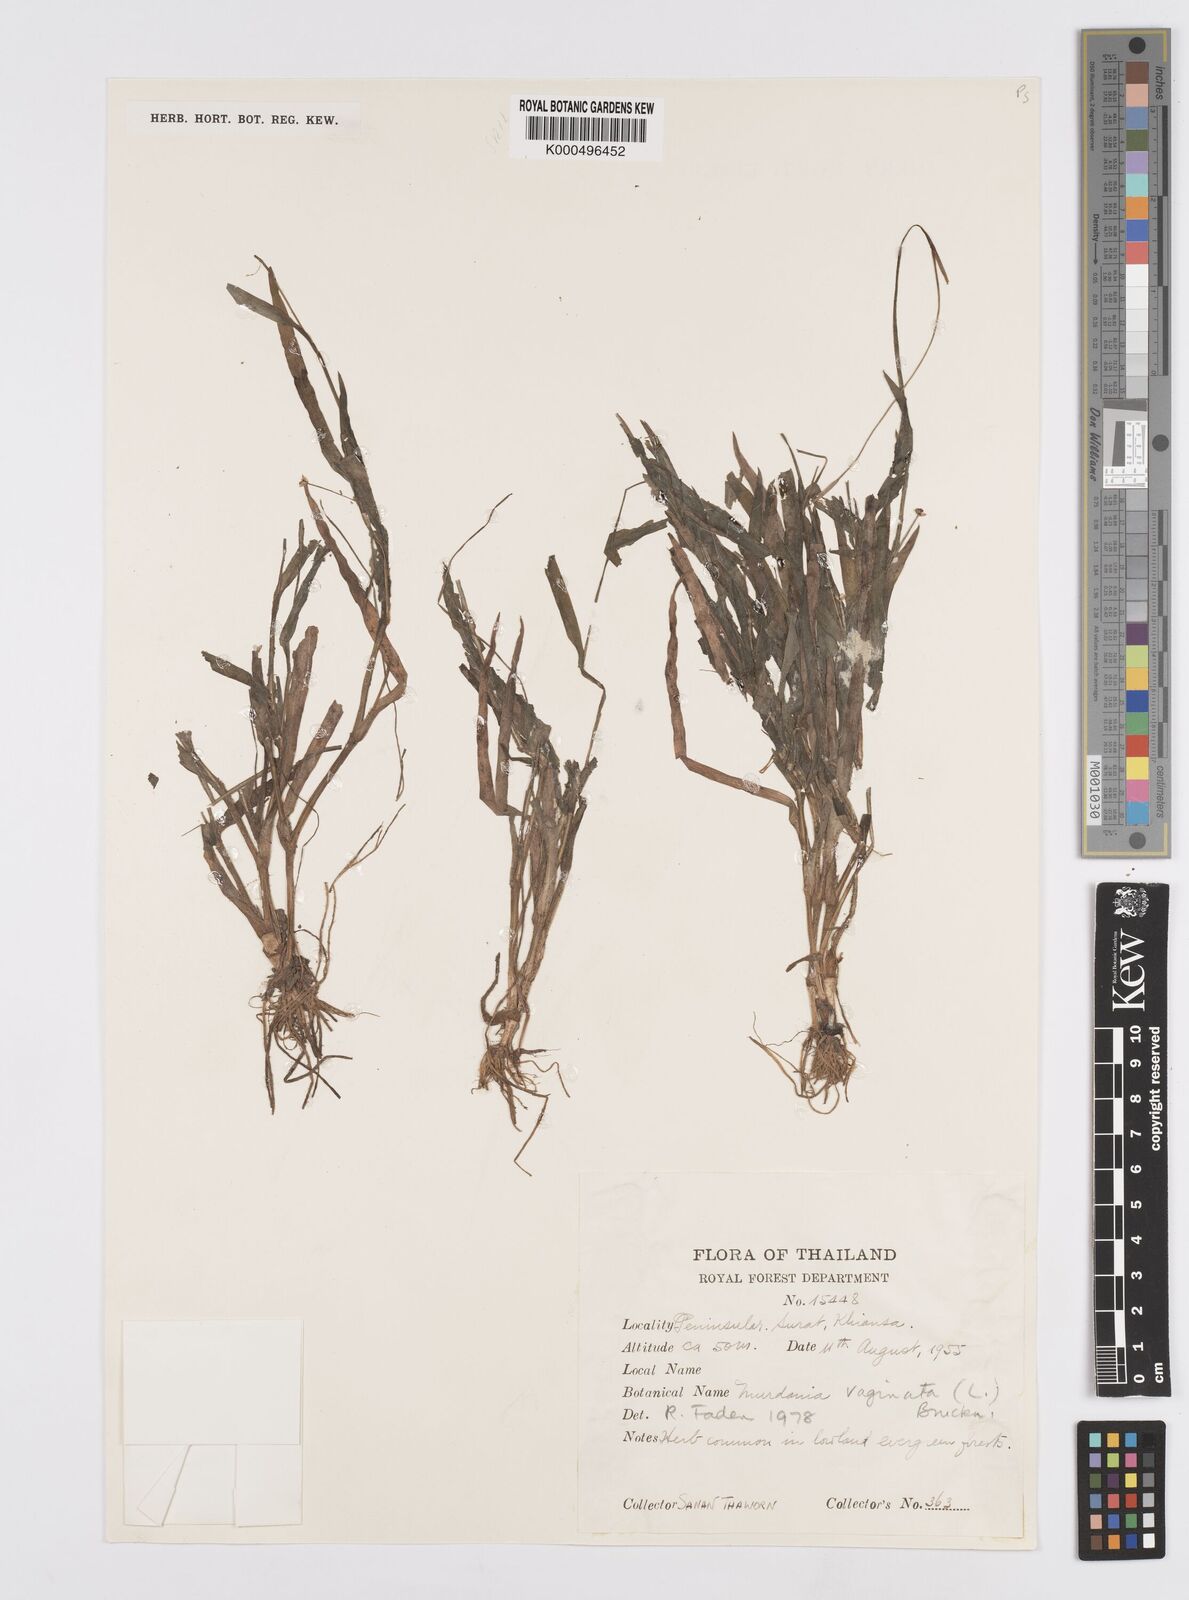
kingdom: Plantae
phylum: Tracheophyta
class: Liliopsida
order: Commelinales
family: Commelinaceae
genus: Murdannia
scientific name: Murdannia
